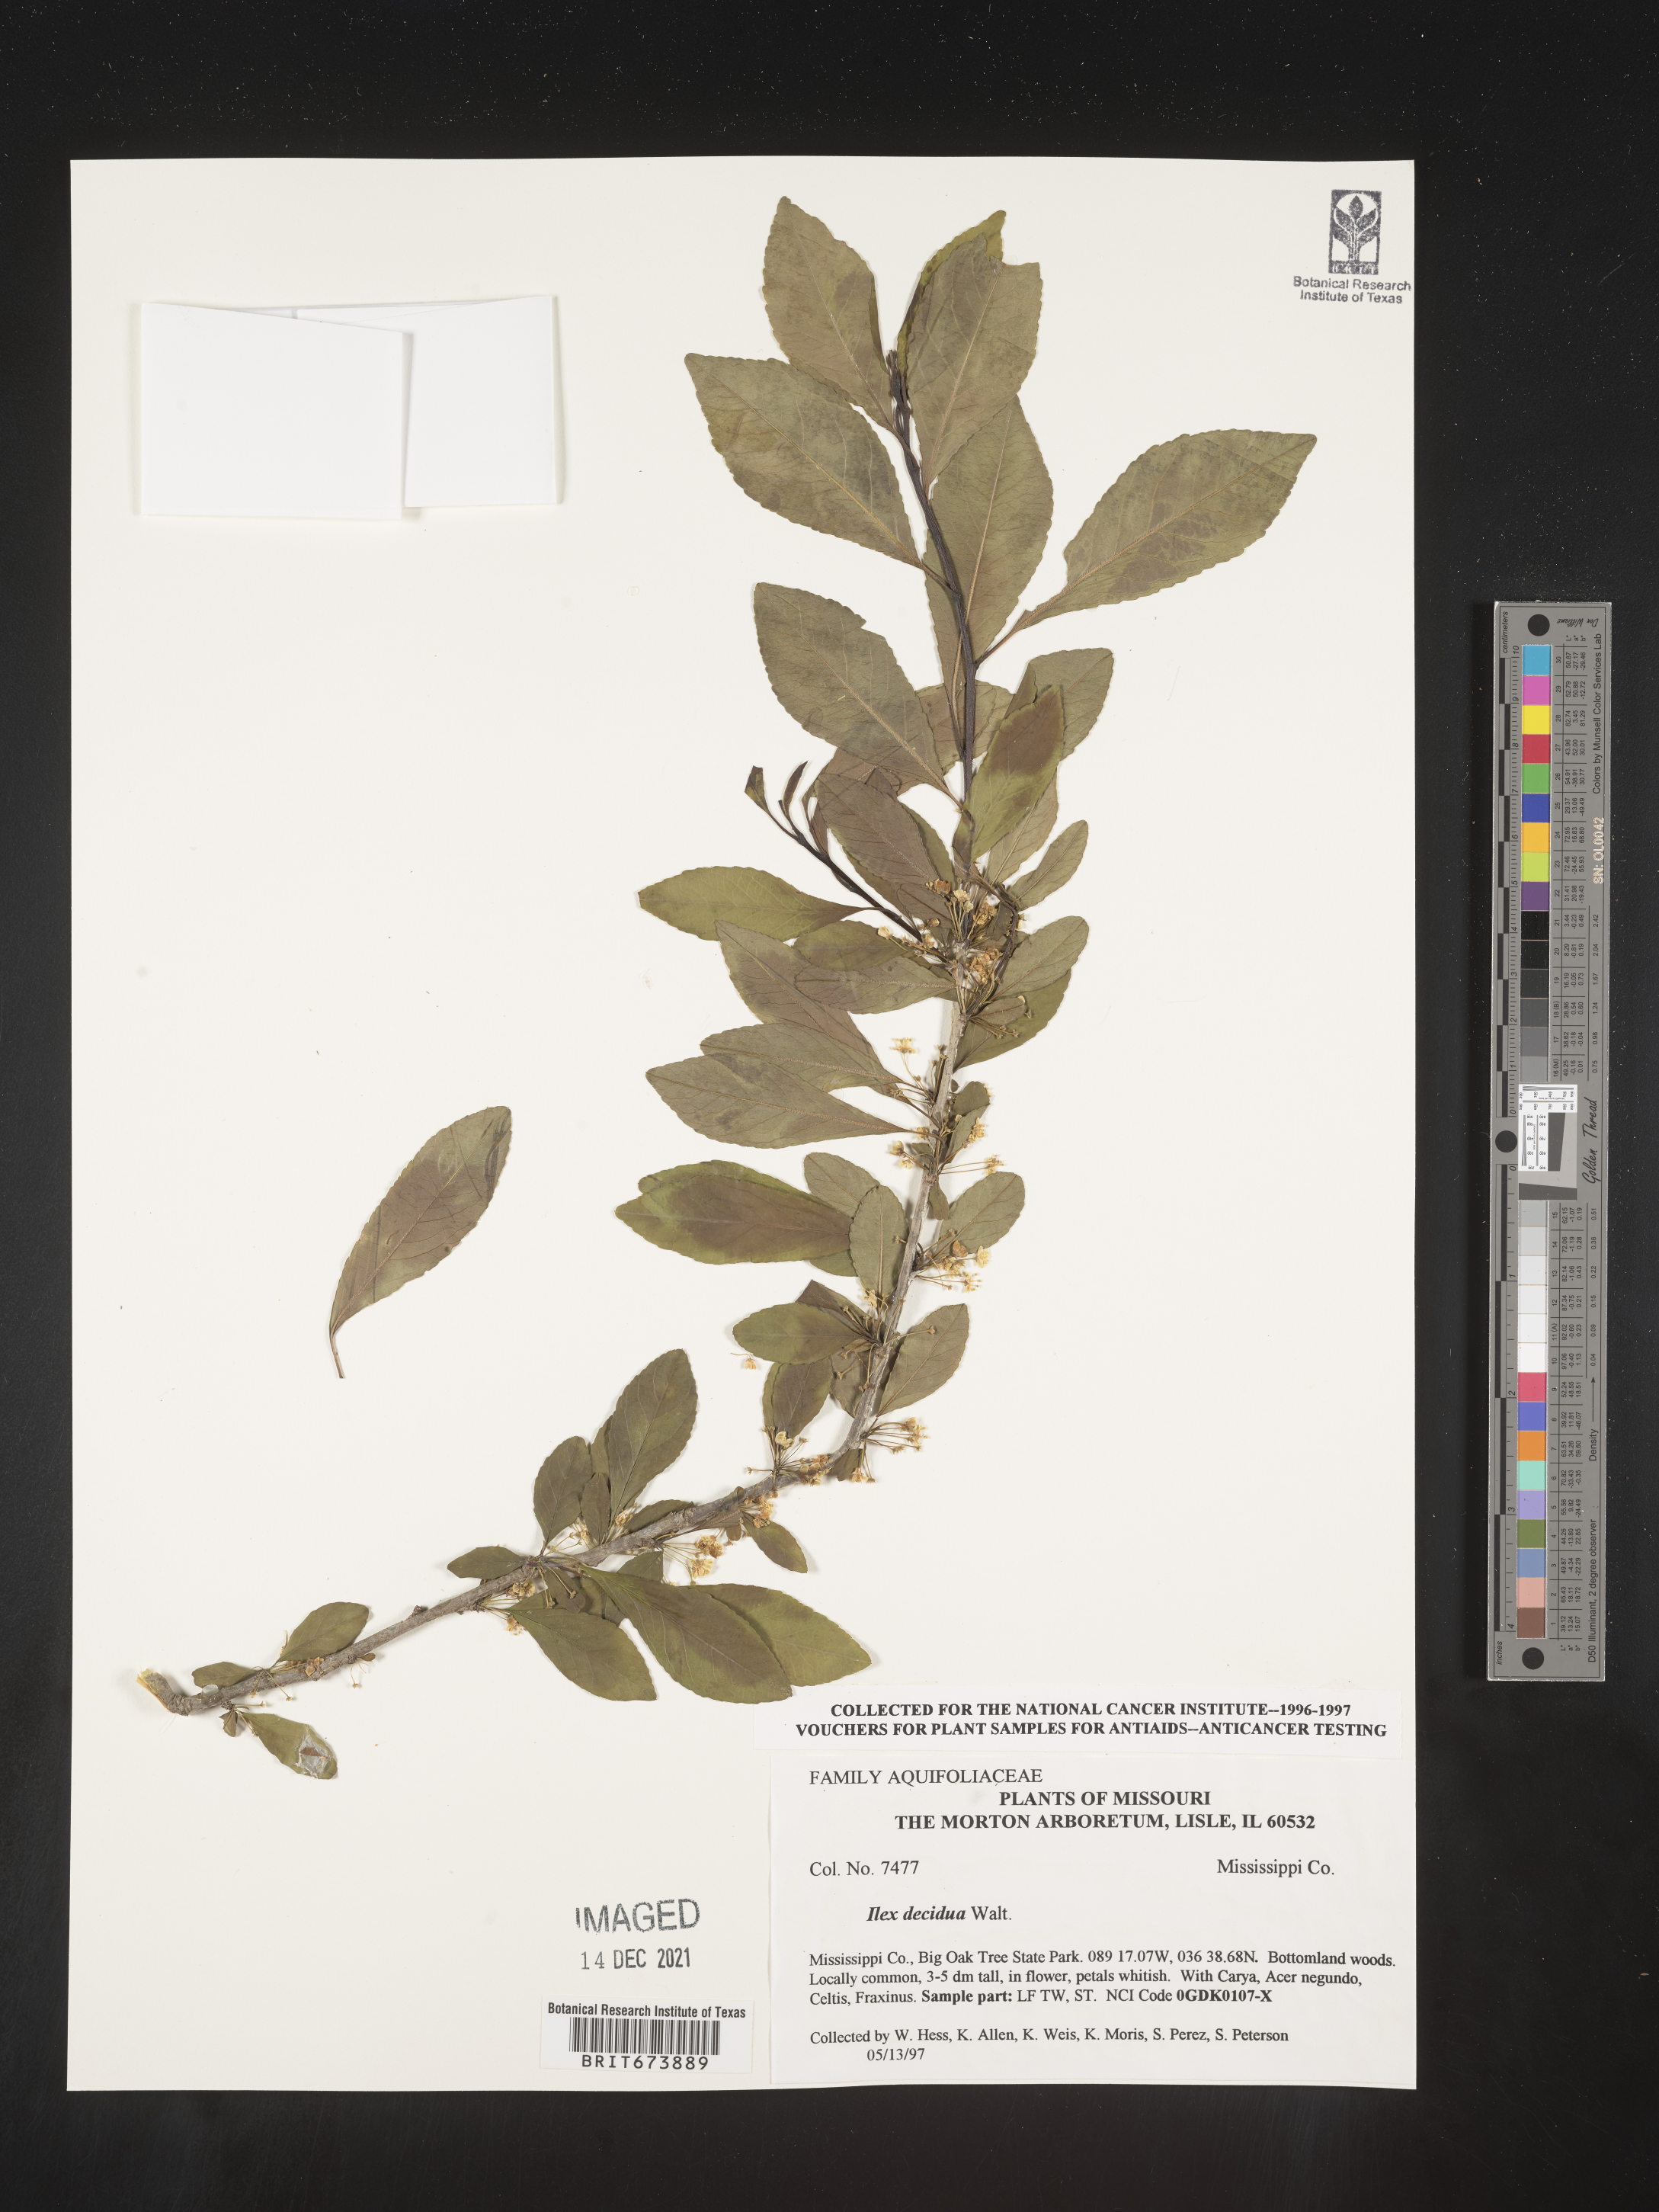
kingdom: Plantae
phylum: Tracheophyta
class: Magnoliopsida
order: Aquifoliales
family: Aquifoliaceae
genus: Ilex
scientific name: Ilex decidua
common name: Possum-haw
